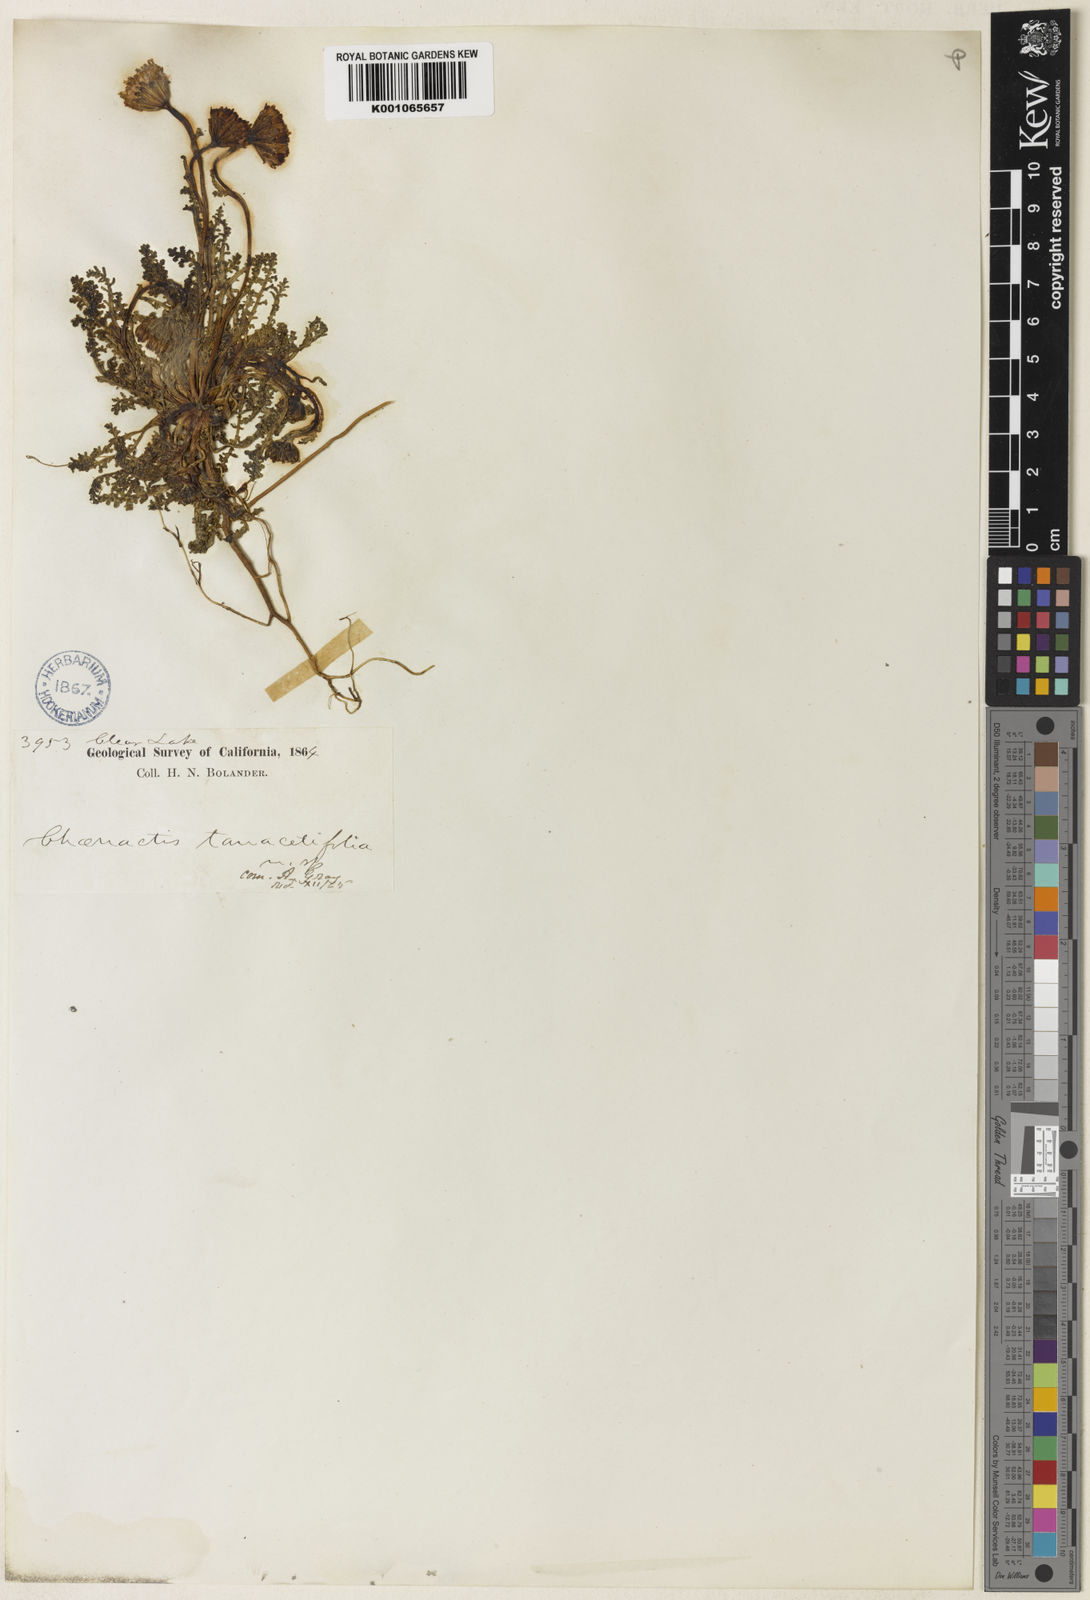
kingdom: Plantae
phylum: Tracheophyta
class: Magnoliopsida
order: Asterales
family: Asteraceae
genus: Chaenactis
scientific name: Chaenactis glabriuscula
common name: Yellow pincushion
